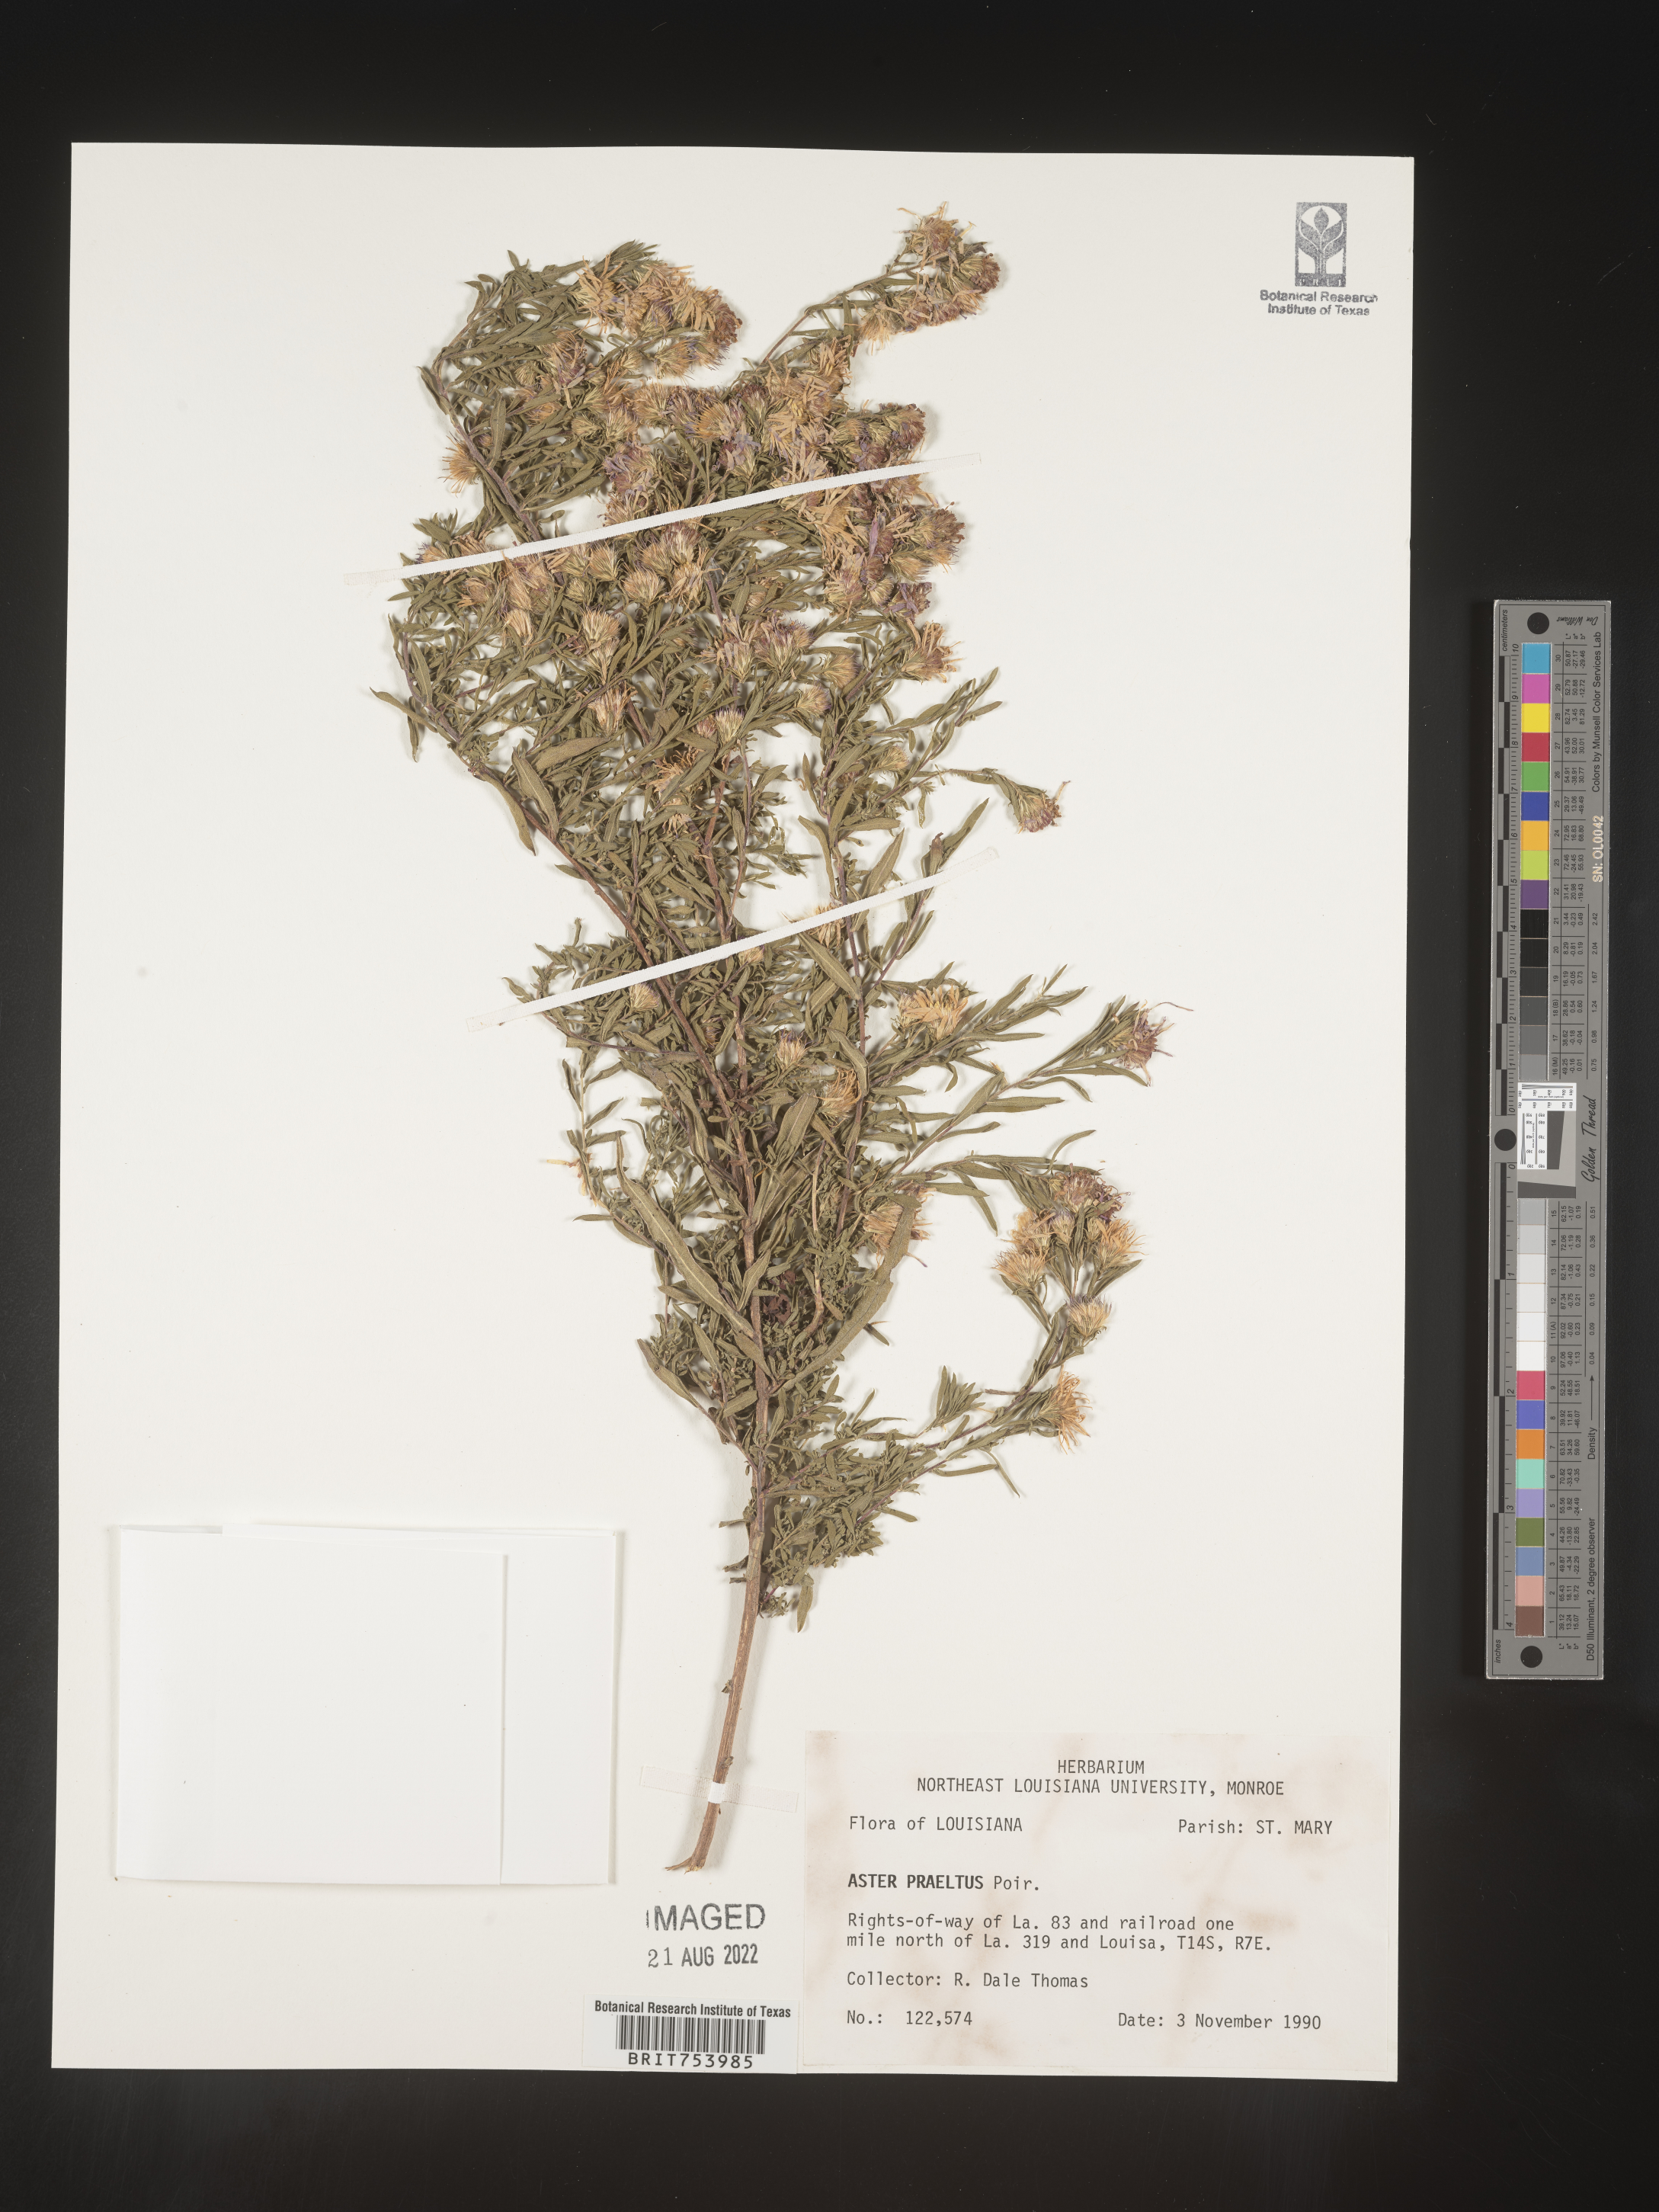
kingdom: Plantae
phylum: Tracheophyta
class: Magnoliopsida
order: Asterales
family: Asteraceae
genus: Symphyotrichum
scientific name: Symphyotrichum praealtum
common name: Willow aster
